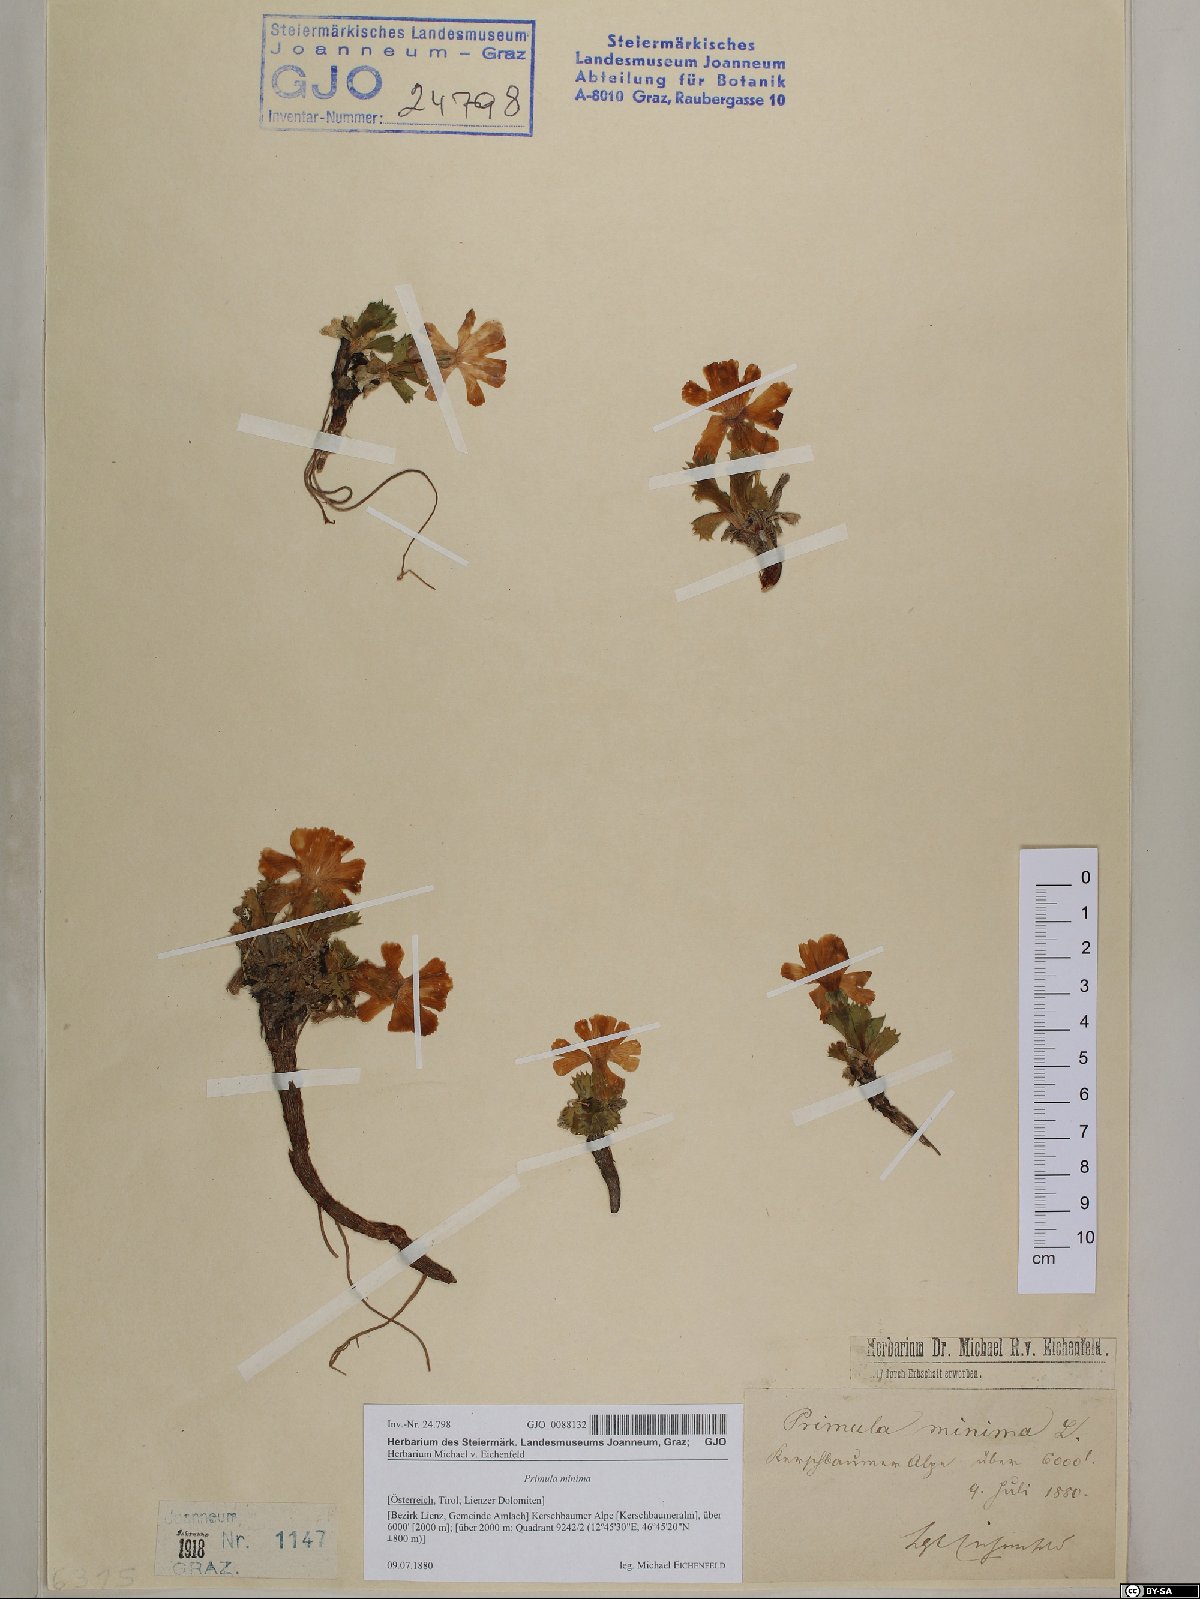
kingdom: Plantae
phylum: Tracheophyta
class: Magnoliopsida
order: Ericales
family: Primulaceae
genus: Primula
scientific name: Primula minima
